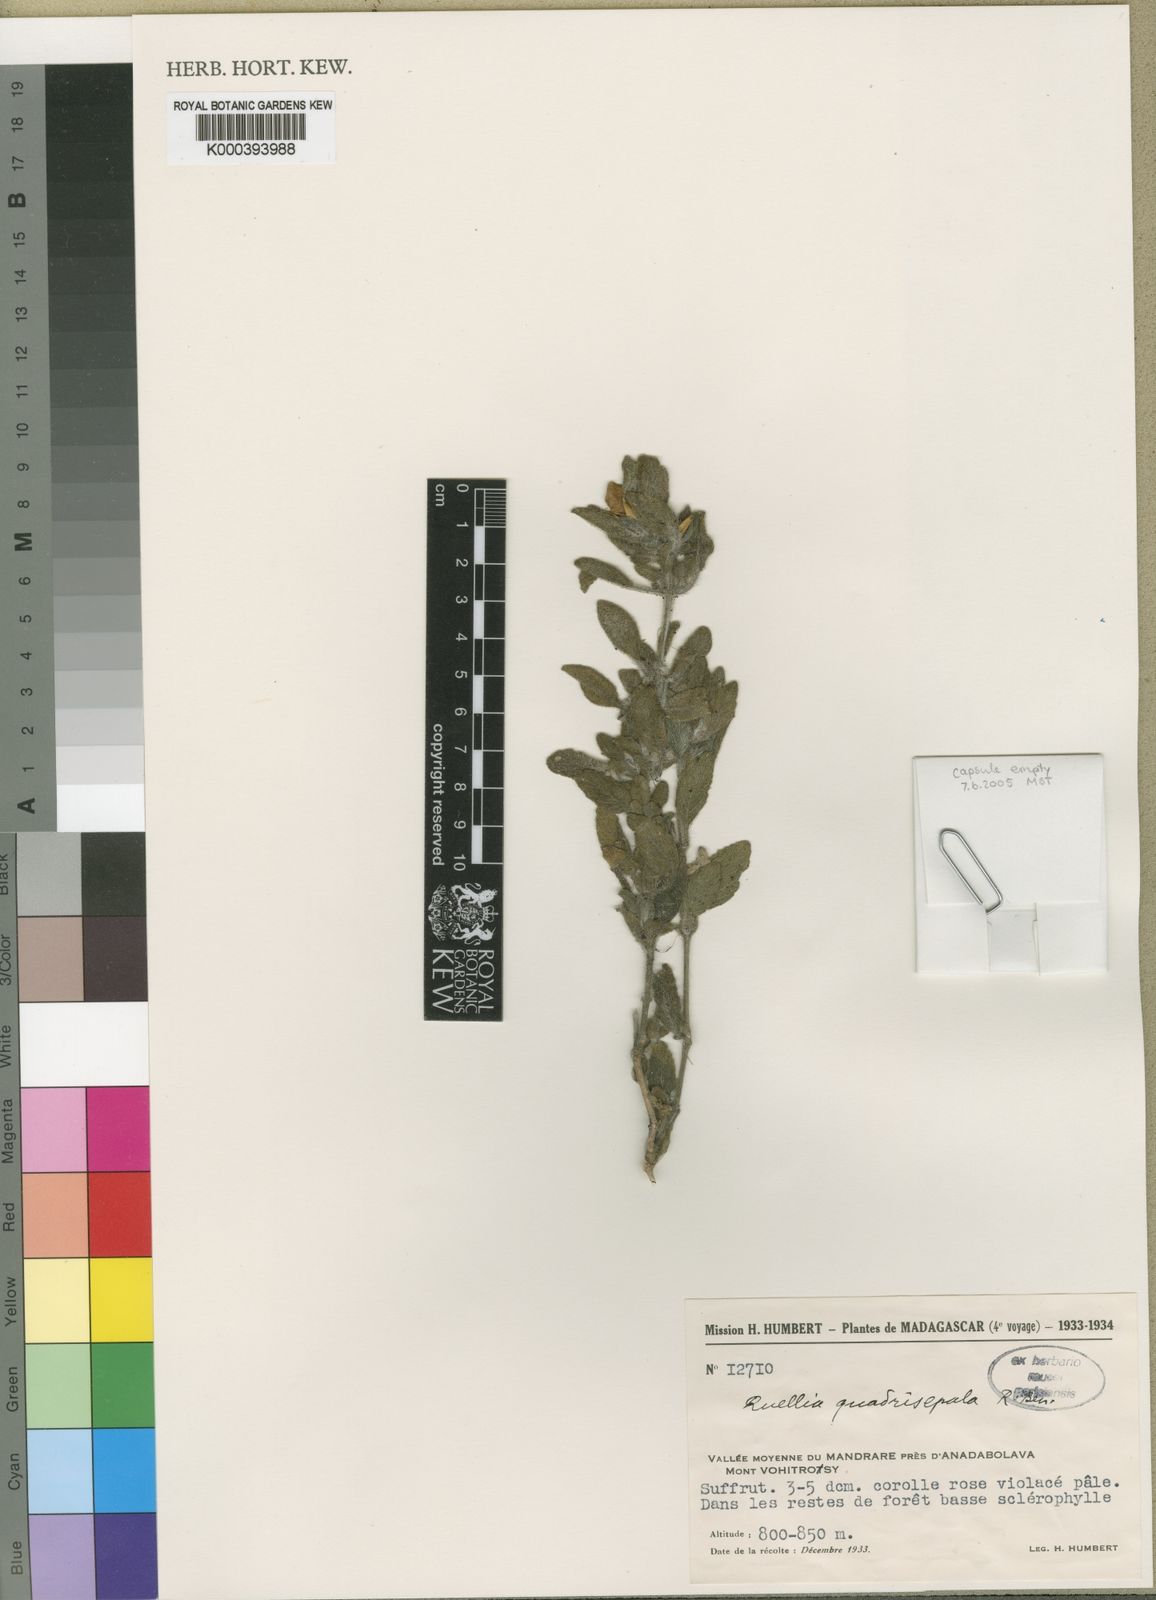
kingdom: Plantae
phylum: Tracheophyta
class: Magnoliopsida
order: Lamiales
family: Acanthaceae
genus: Ruellia
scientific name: Ruellia quadrisepala
